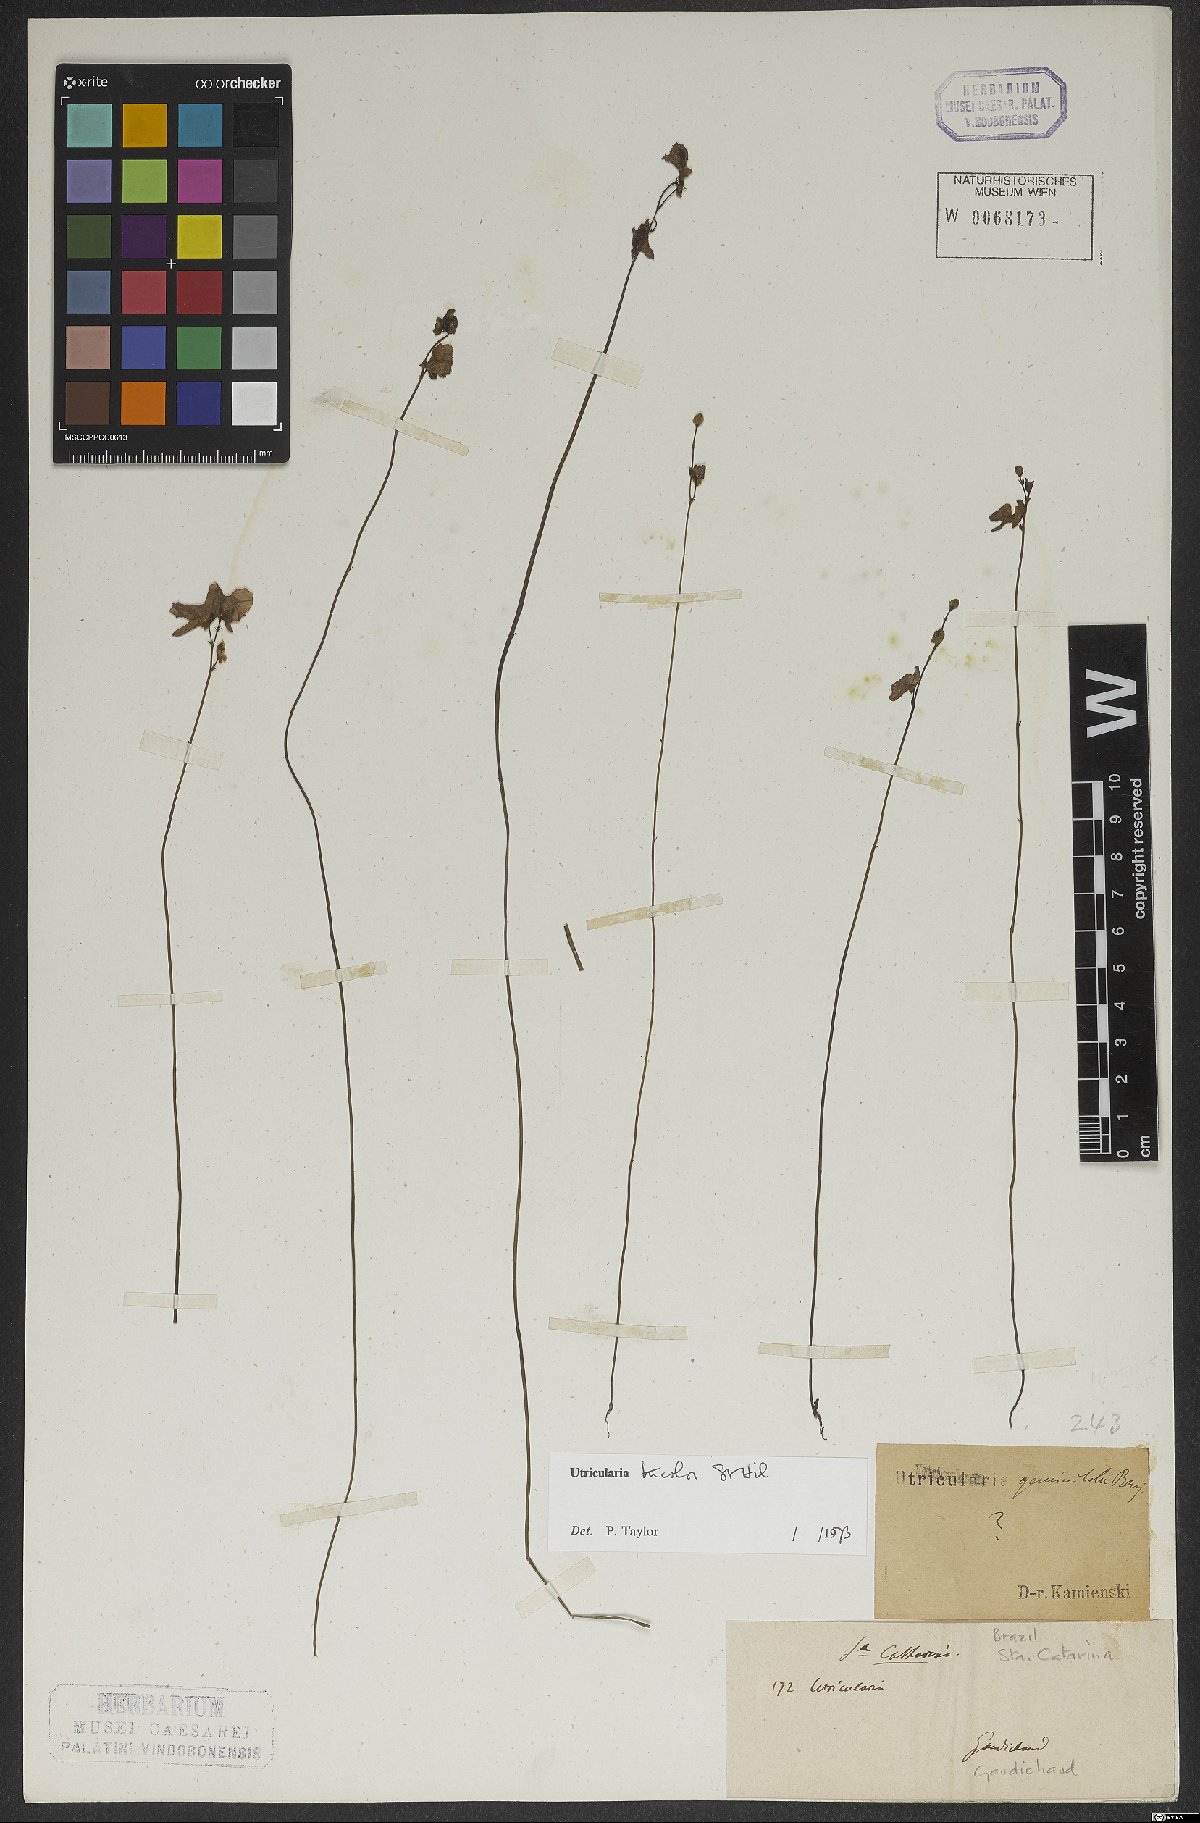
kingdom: Plantae
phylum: Tracheophyta
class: Magnoliopsida
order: Lamiales
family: Lentibulariaceae
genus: Utricularia
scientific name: Utricularia tricolor
